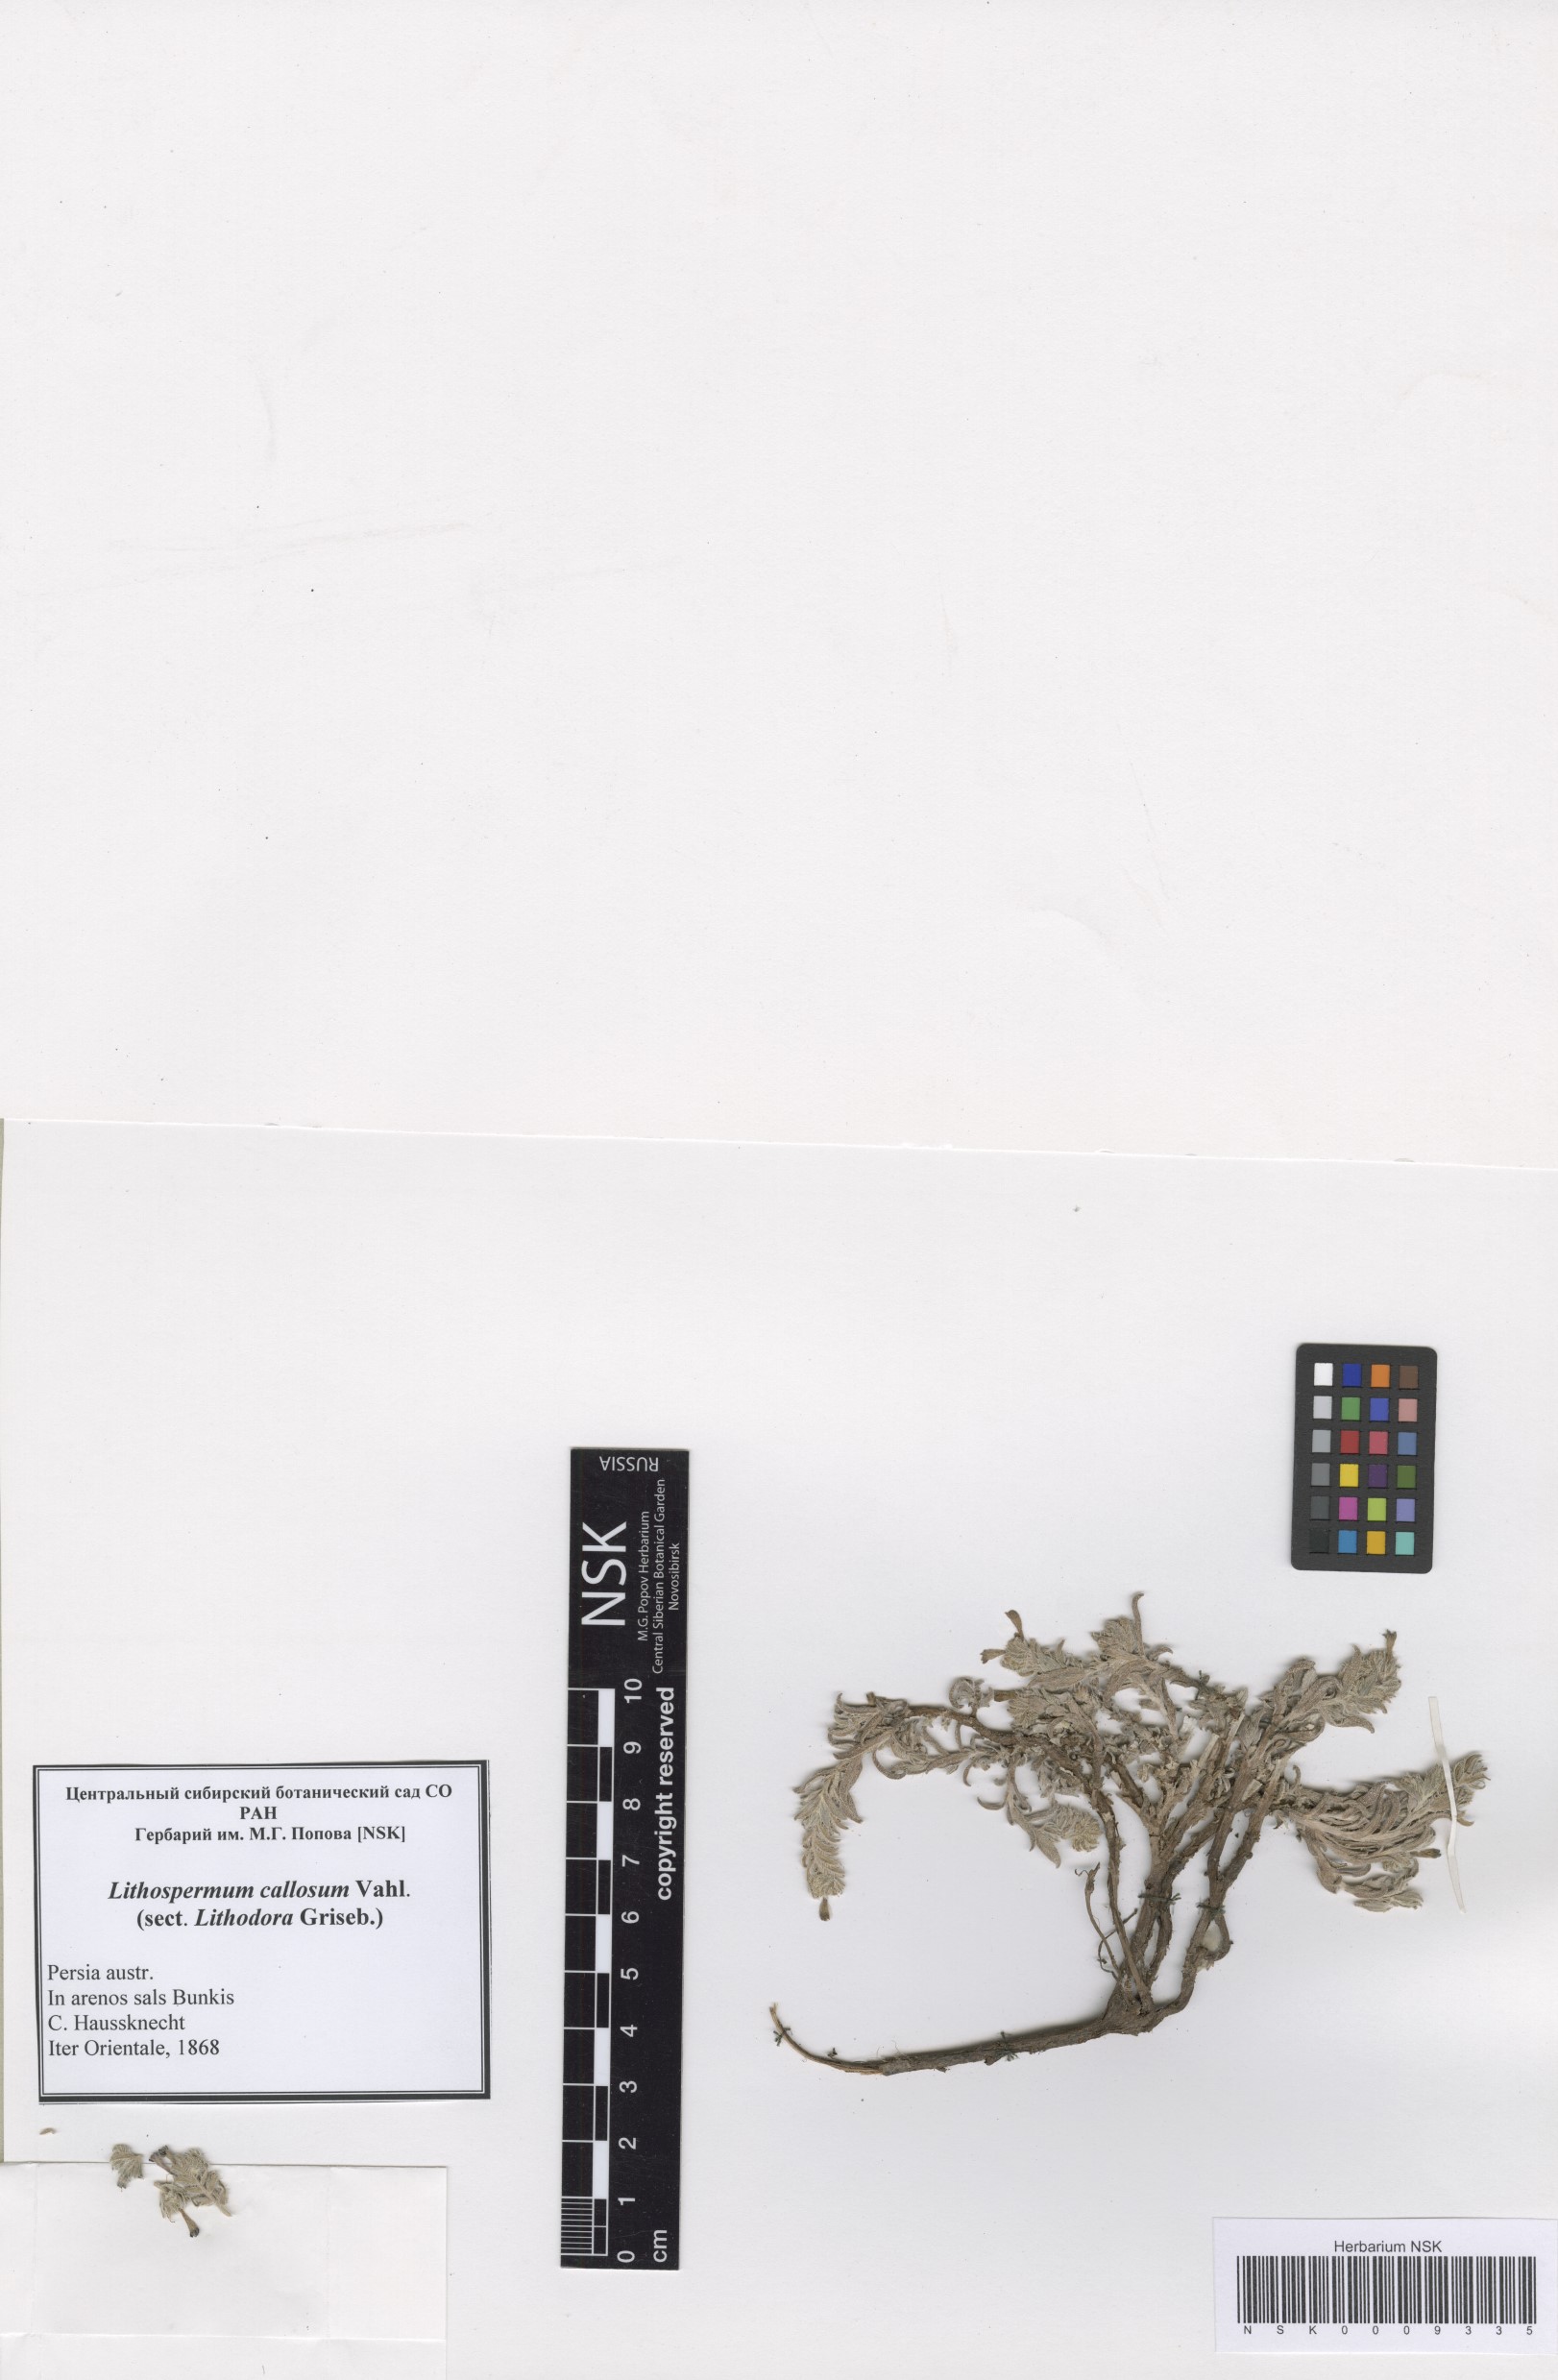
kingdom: Plantae
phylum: Tracheophyta
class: Magnoliopsida
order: Boraginales
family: Boraginaceae
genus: Moltkiopsis
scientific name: Moltkiopsis ciliata
